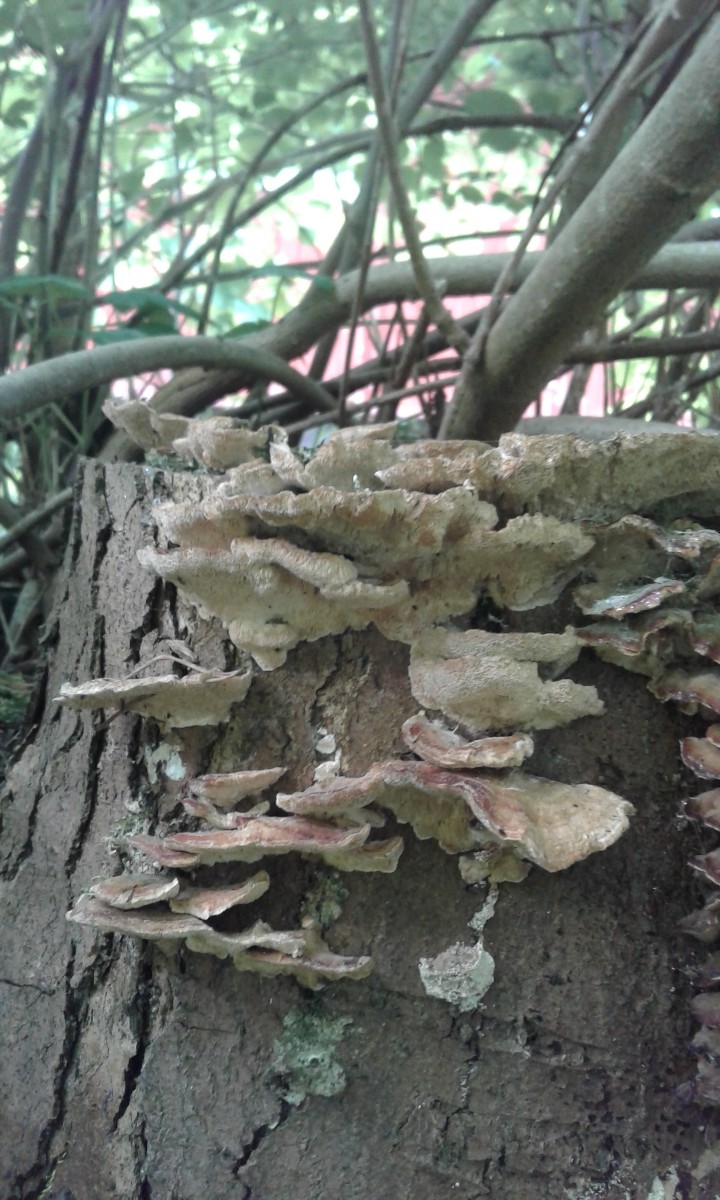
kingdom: Fungi
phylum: Basidiomycota
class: Agaricomycetes
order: Polyporales
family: Polyporaceae
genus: Trametes
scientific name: Trametes
